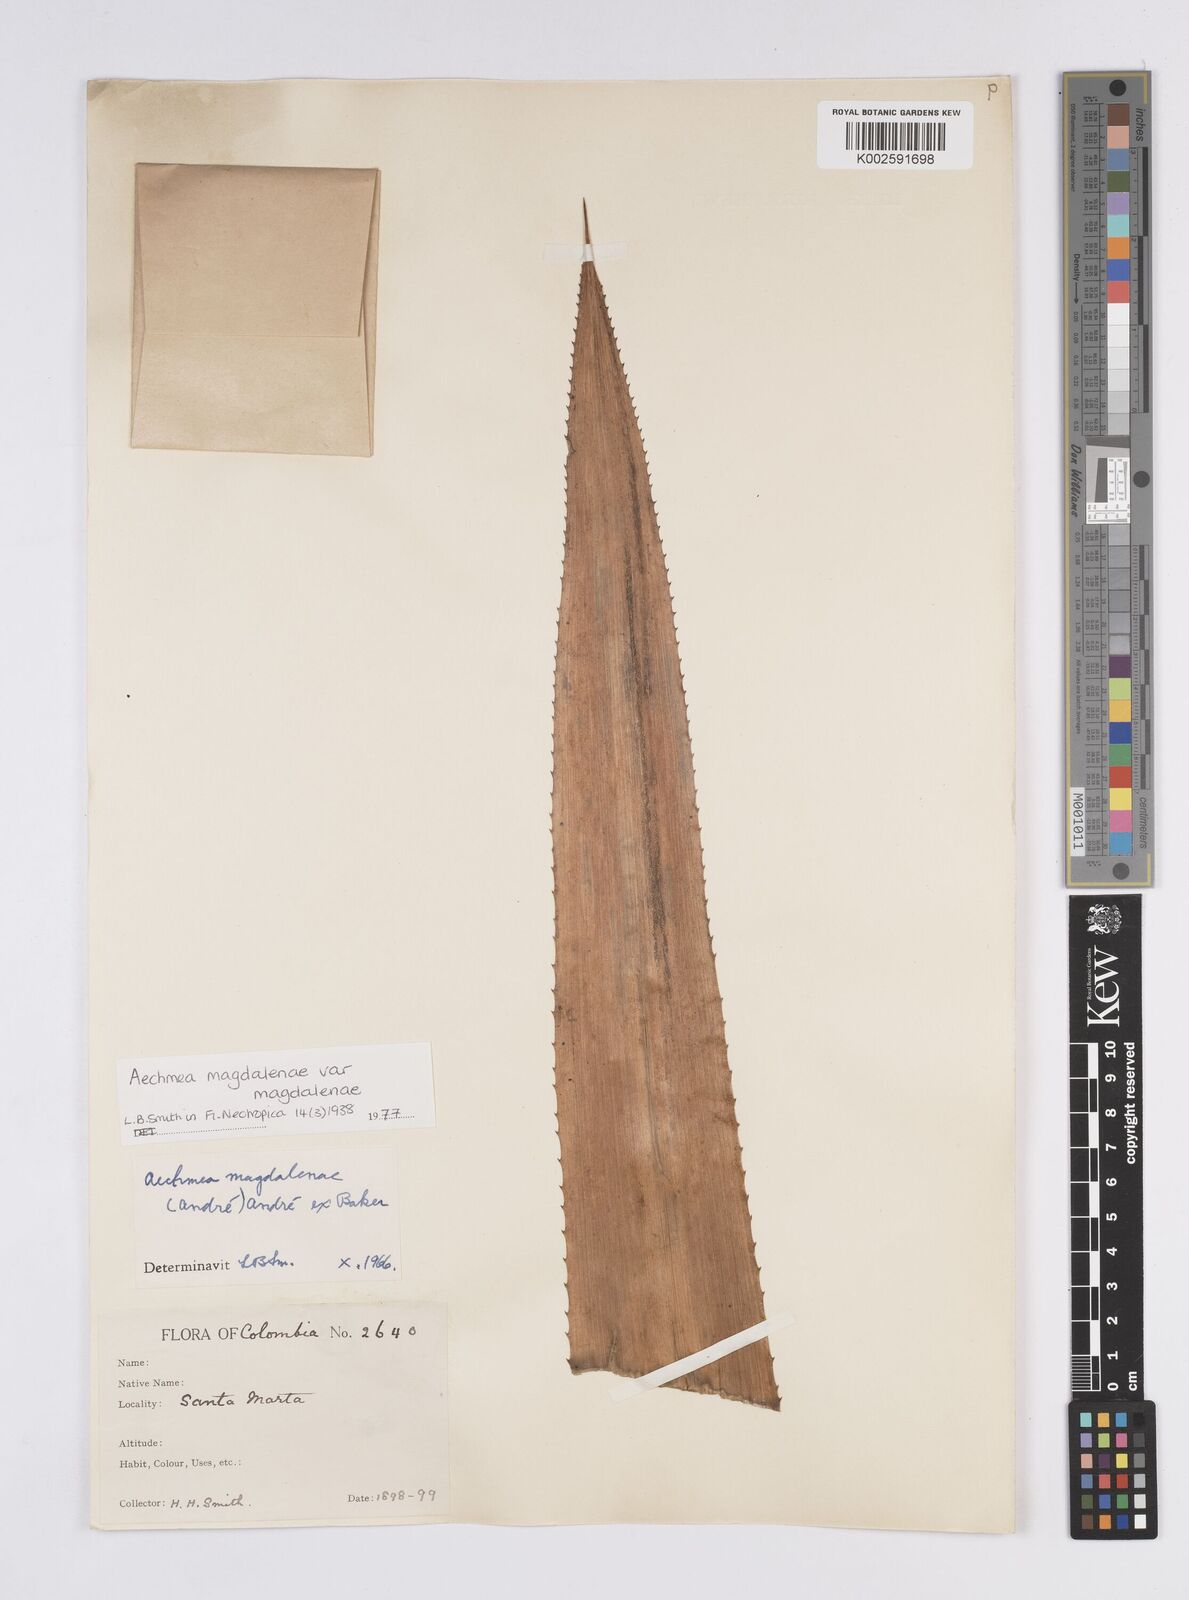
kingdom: Plantae
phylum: Tracheophyta
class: Liliopsida
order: Poales
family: Bromeliaceae
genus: Aechmea
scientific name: Aechmea magdalenae
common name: Arghan
